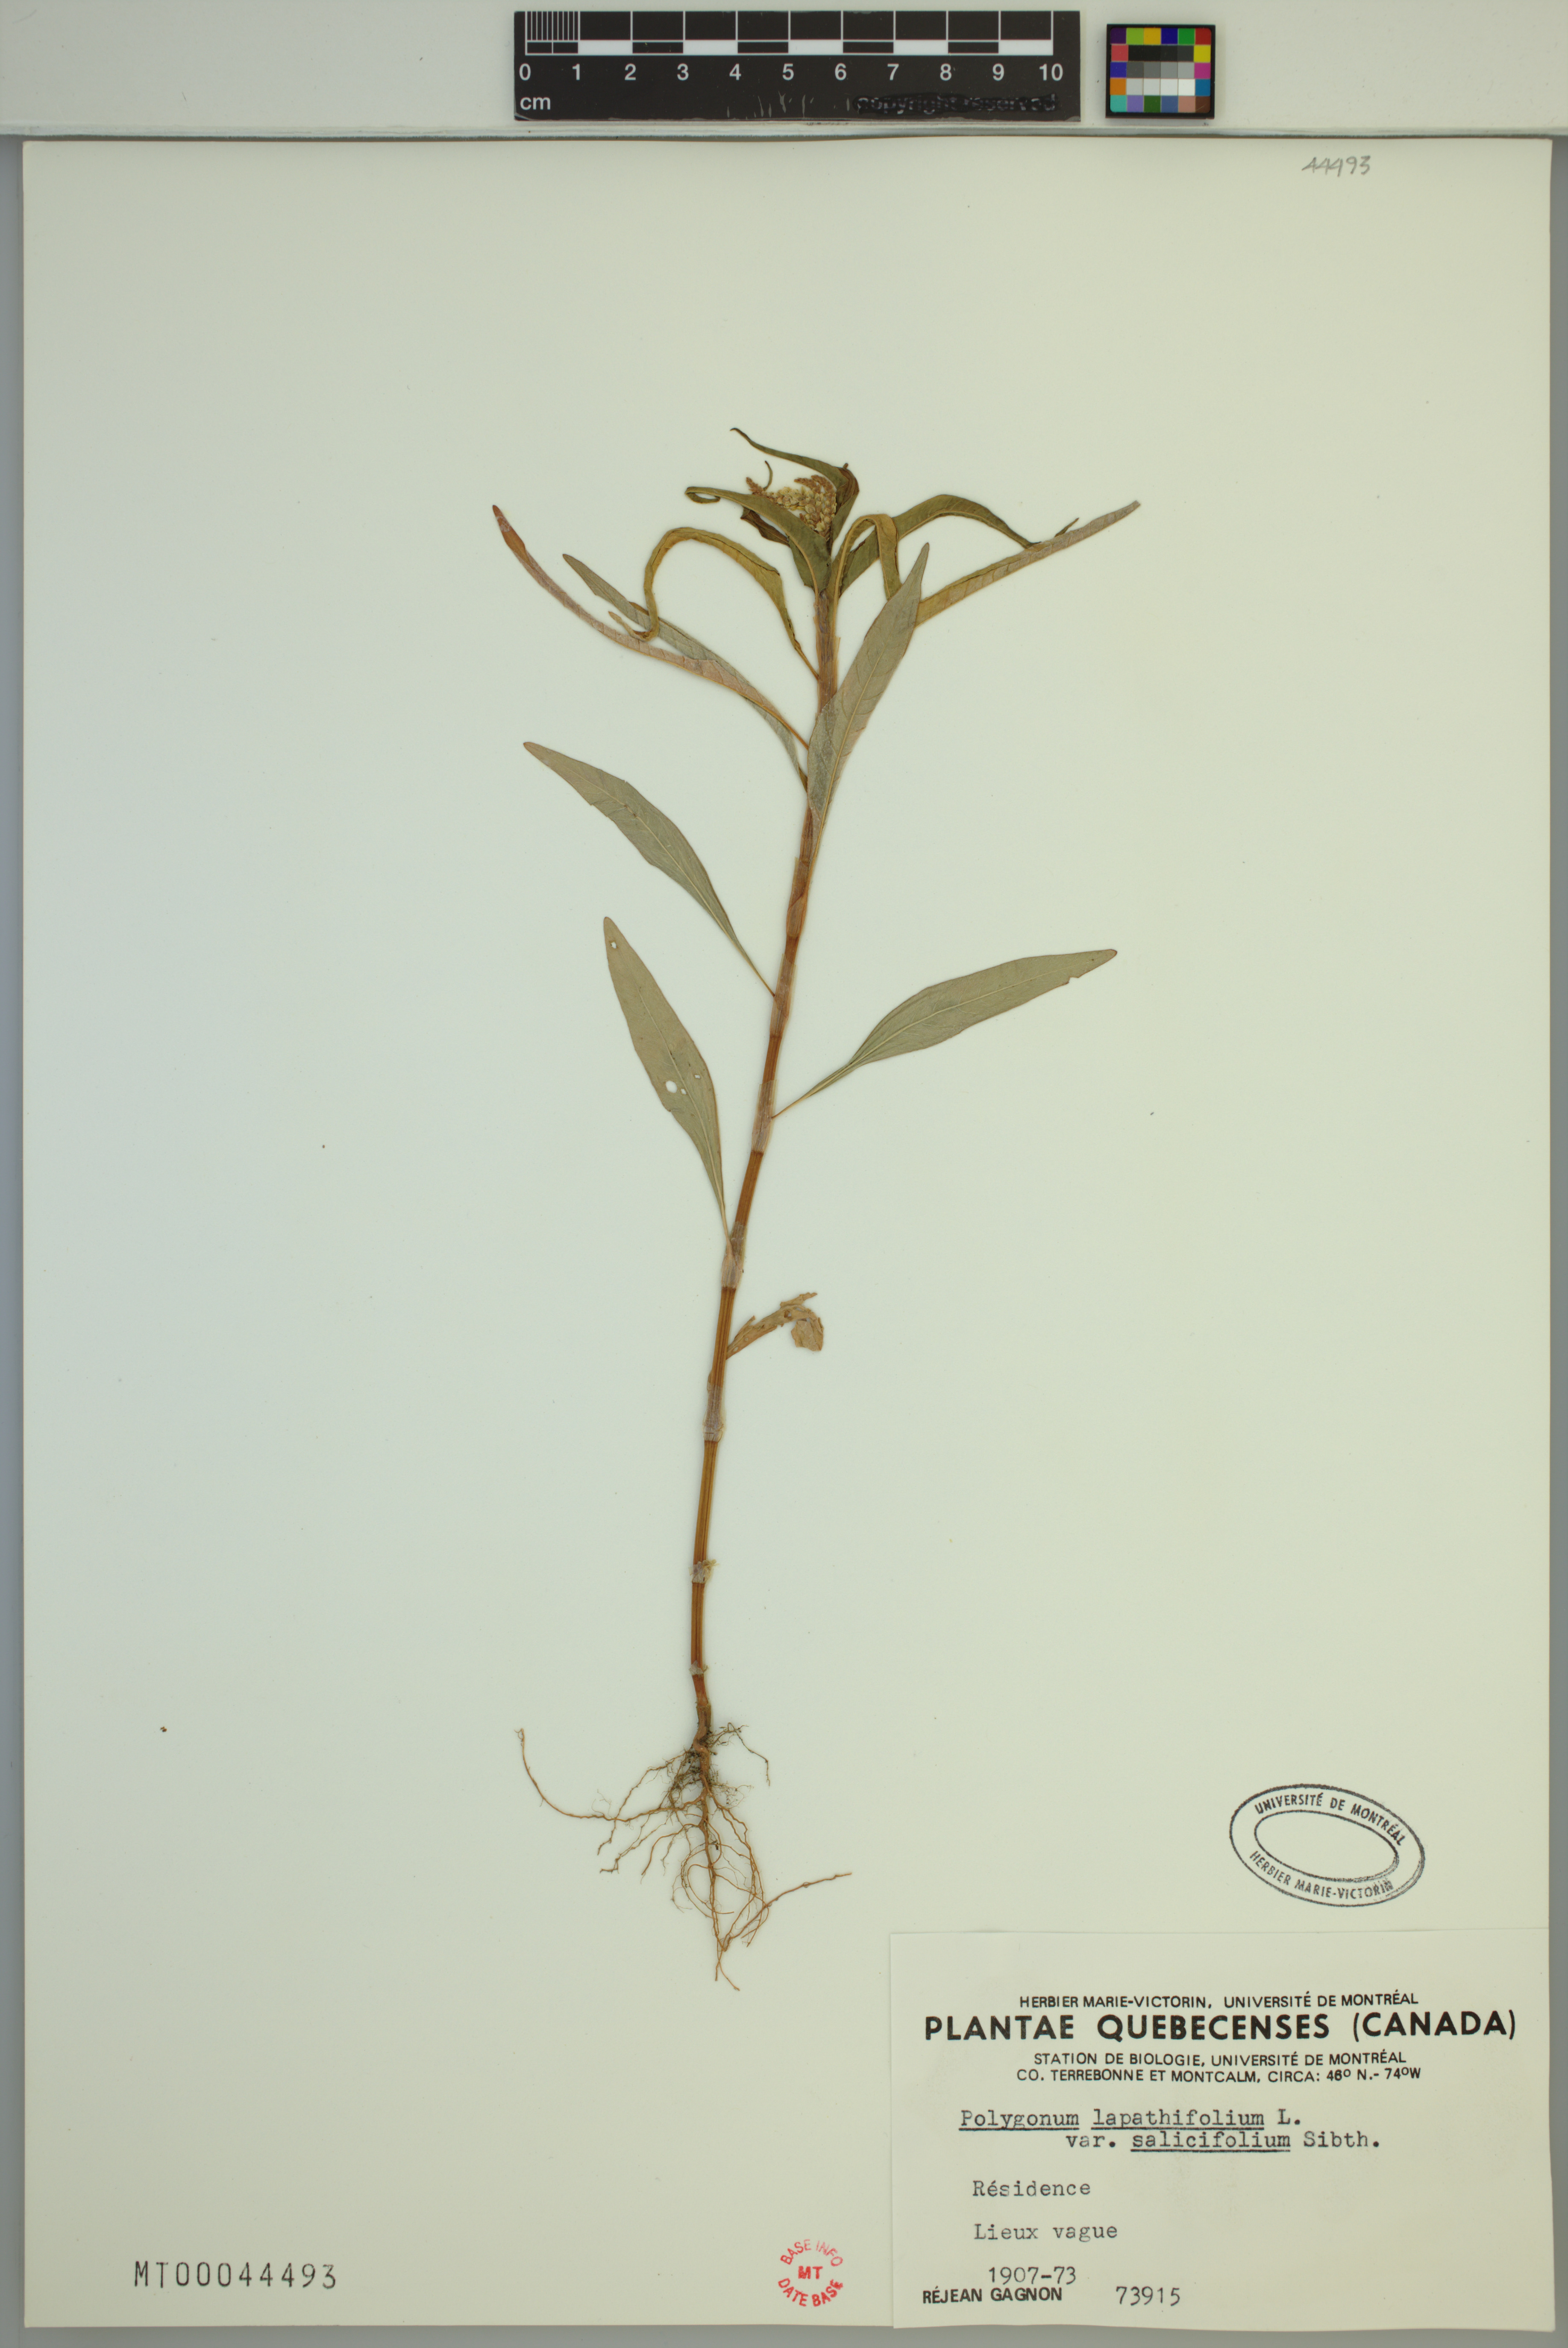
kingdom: Plantae
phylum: Tracheophyta
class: Magnoliopsida
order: Caryophyllales
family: Polygonaceae
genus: Persicaria
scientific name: Persicaria lapathifolia
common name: Curlytop knotweed
